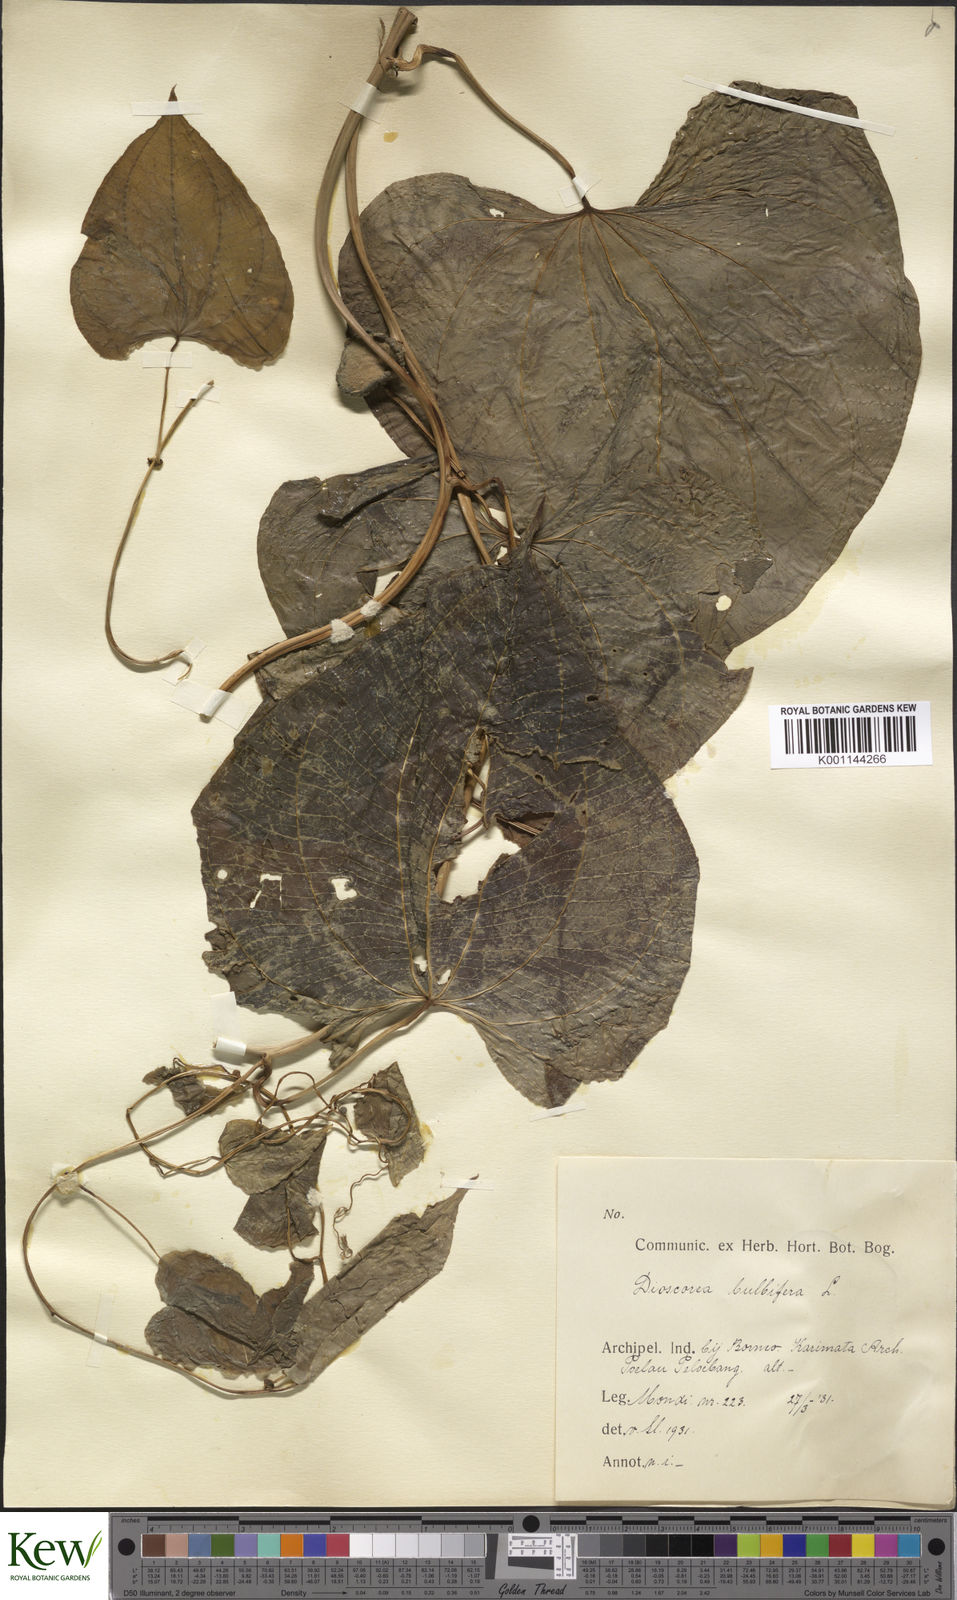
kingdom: Plantae
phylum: Tracheophyta
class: Liliopsida
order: Dioscoreales
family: Dioscoreaceae
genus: Dioscorea
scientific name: Dioscorea bulbifera
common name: Air yam
